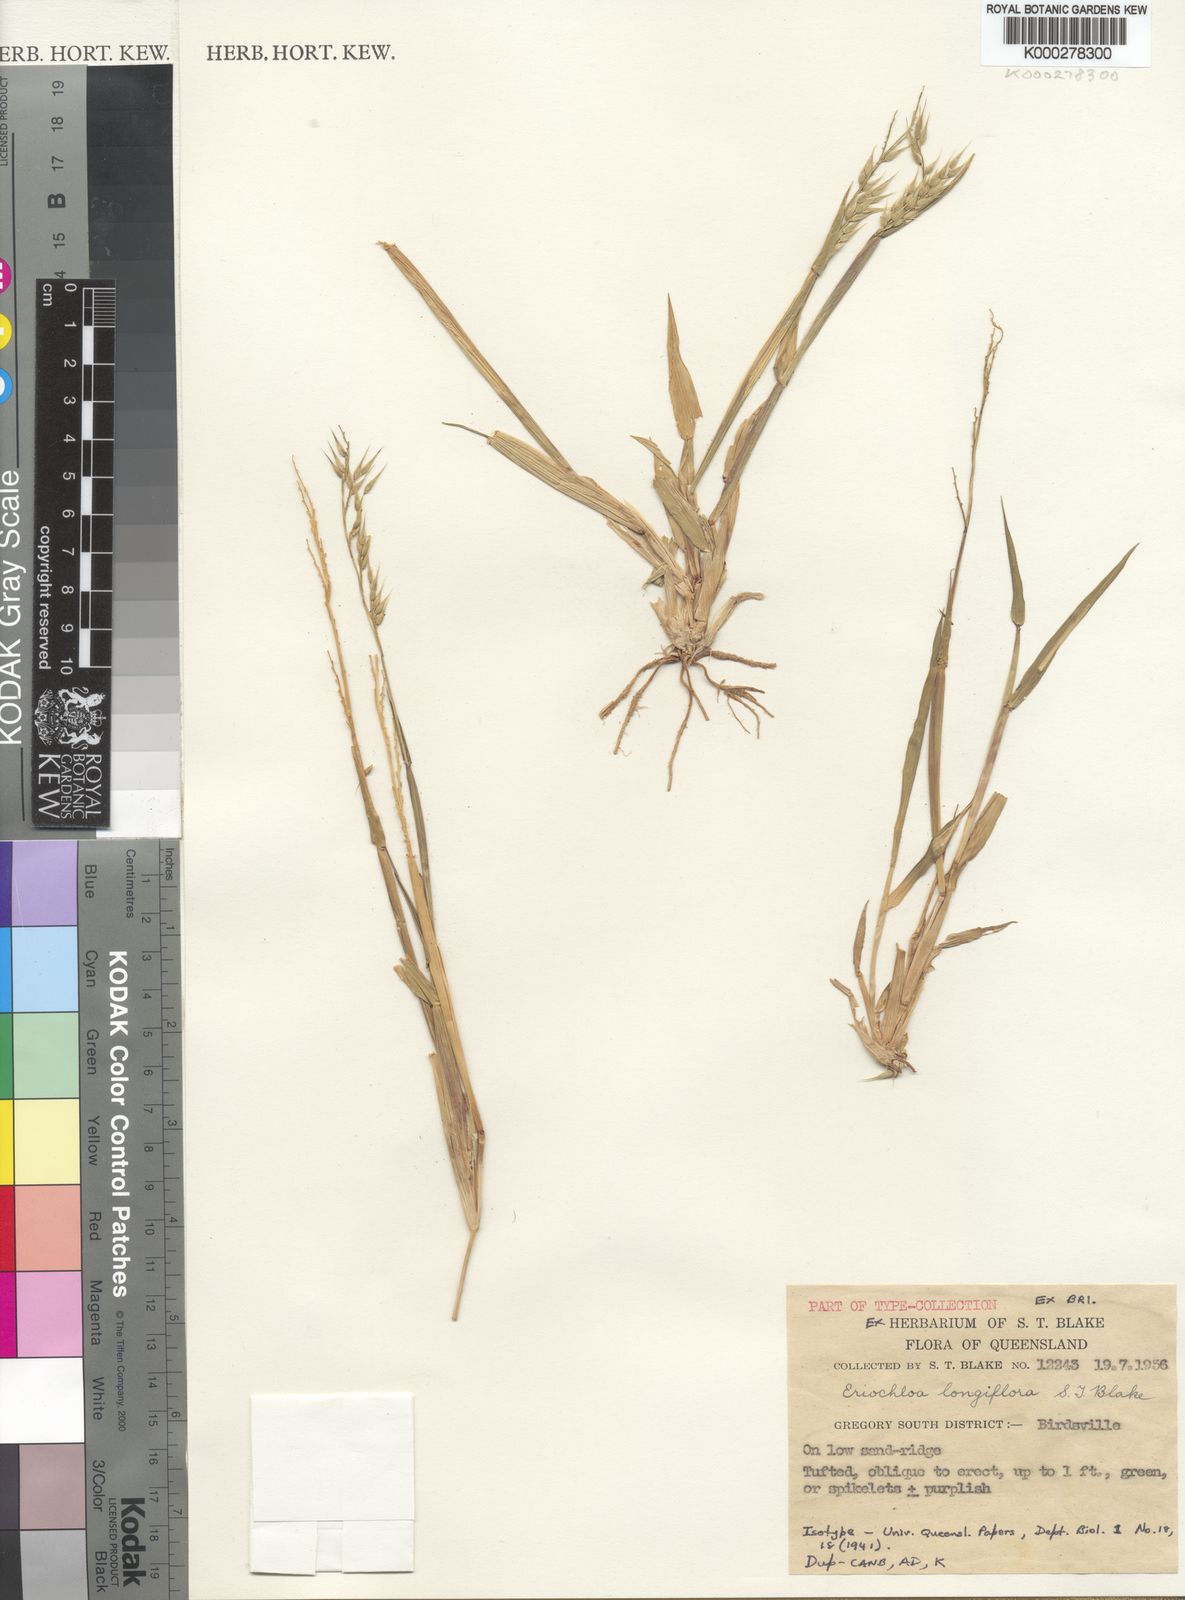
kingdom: Plantae
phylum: Tracheophyta
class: Liliopsida
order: Poales
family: Poaceae
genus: Eriochloa
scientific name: Eriochloa australiensis
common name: Australian cup grass
